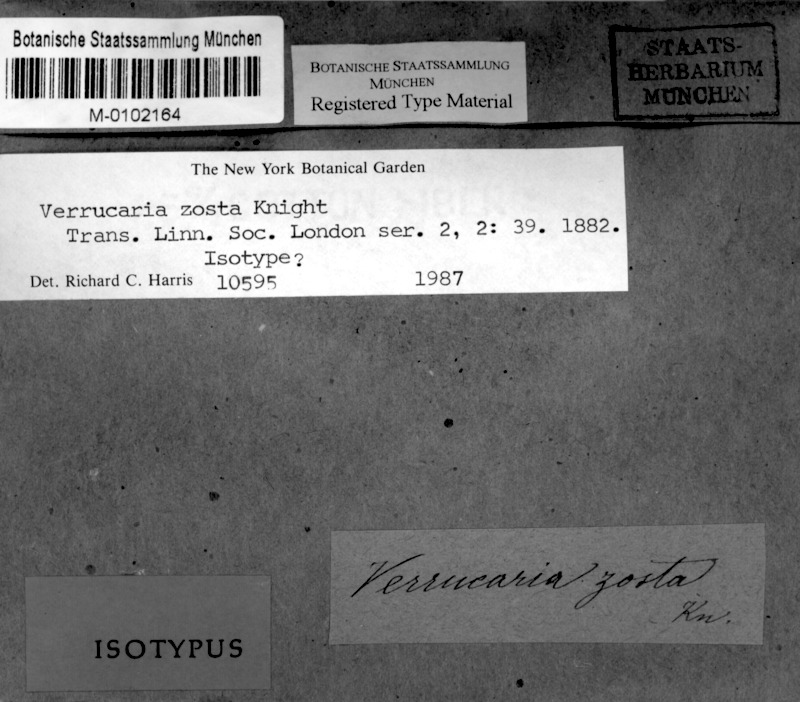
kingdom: Fungi
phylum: Ascomycota
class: Dothideomycetes
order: Trypetheliales
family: Trypetheliaceae
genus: Arthopyrenia
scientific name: Arthopyrenia zostra
